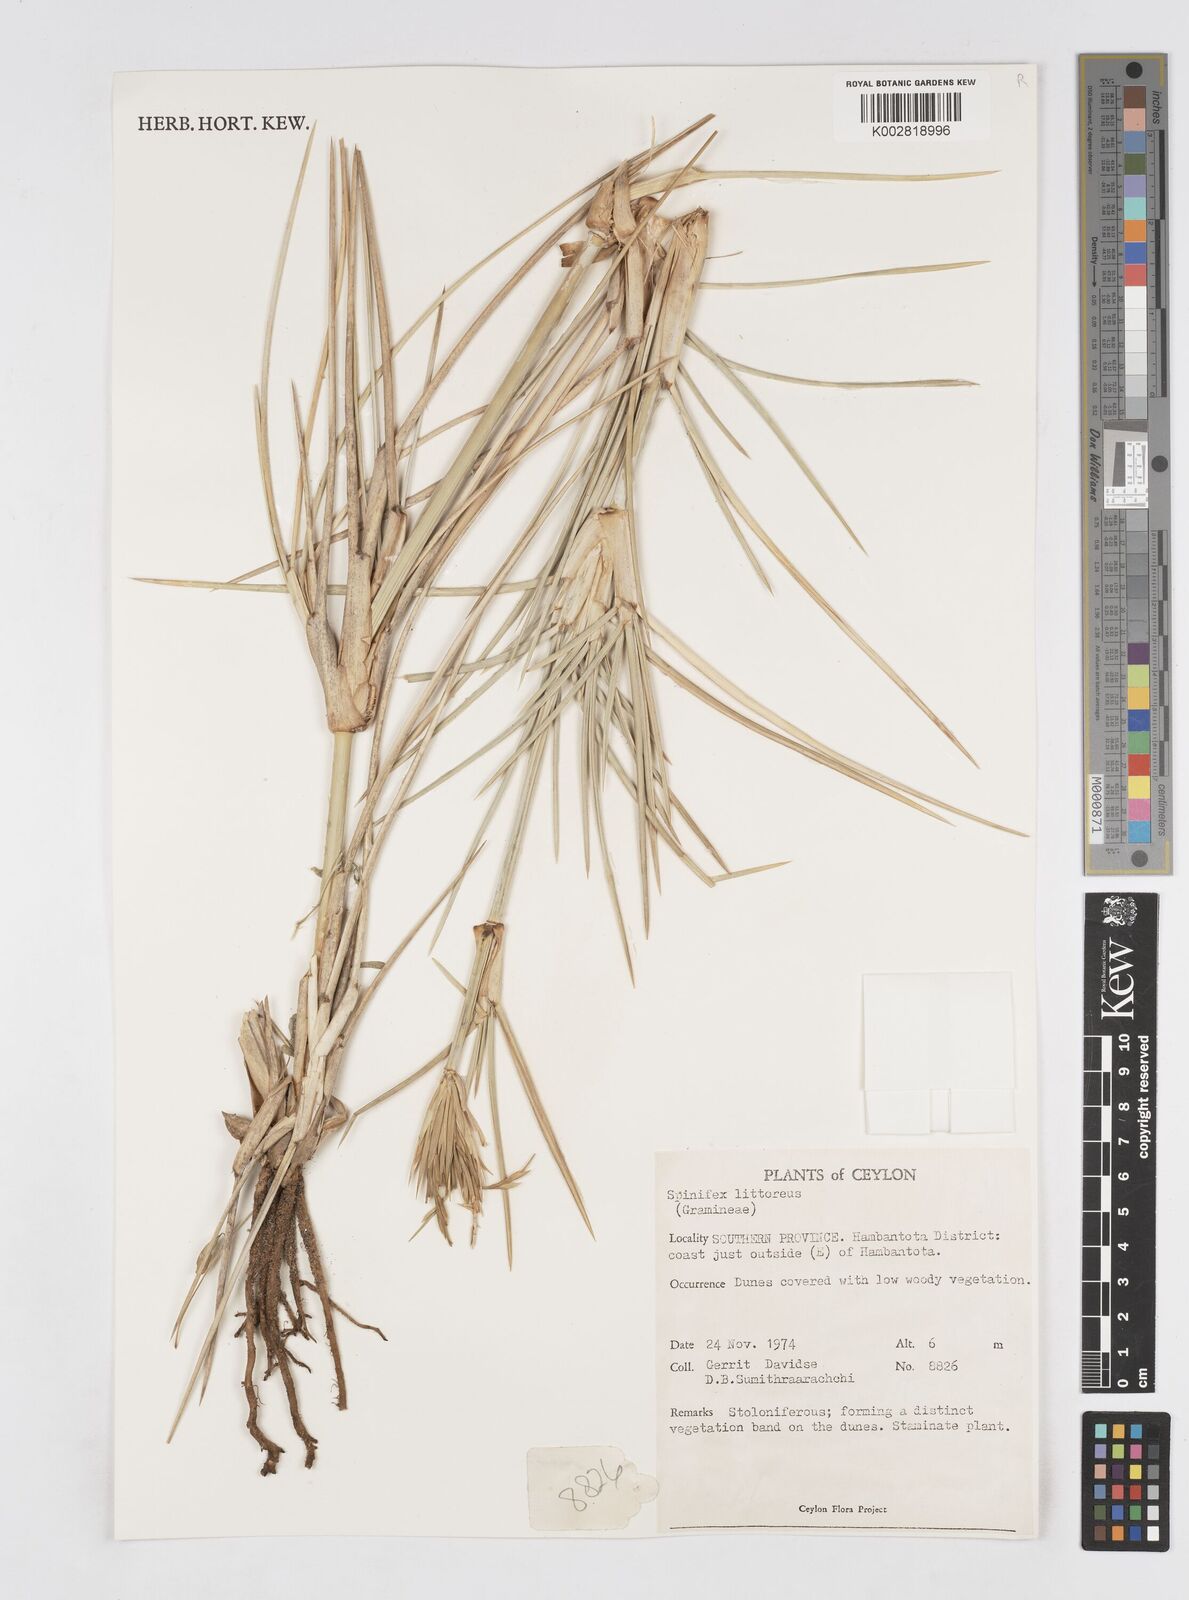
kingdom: Plantae
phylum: Tracheophyta
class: Liliopsida
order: Poales
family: Poaceae
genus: Spinifex
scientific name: Spinifex littoreus
